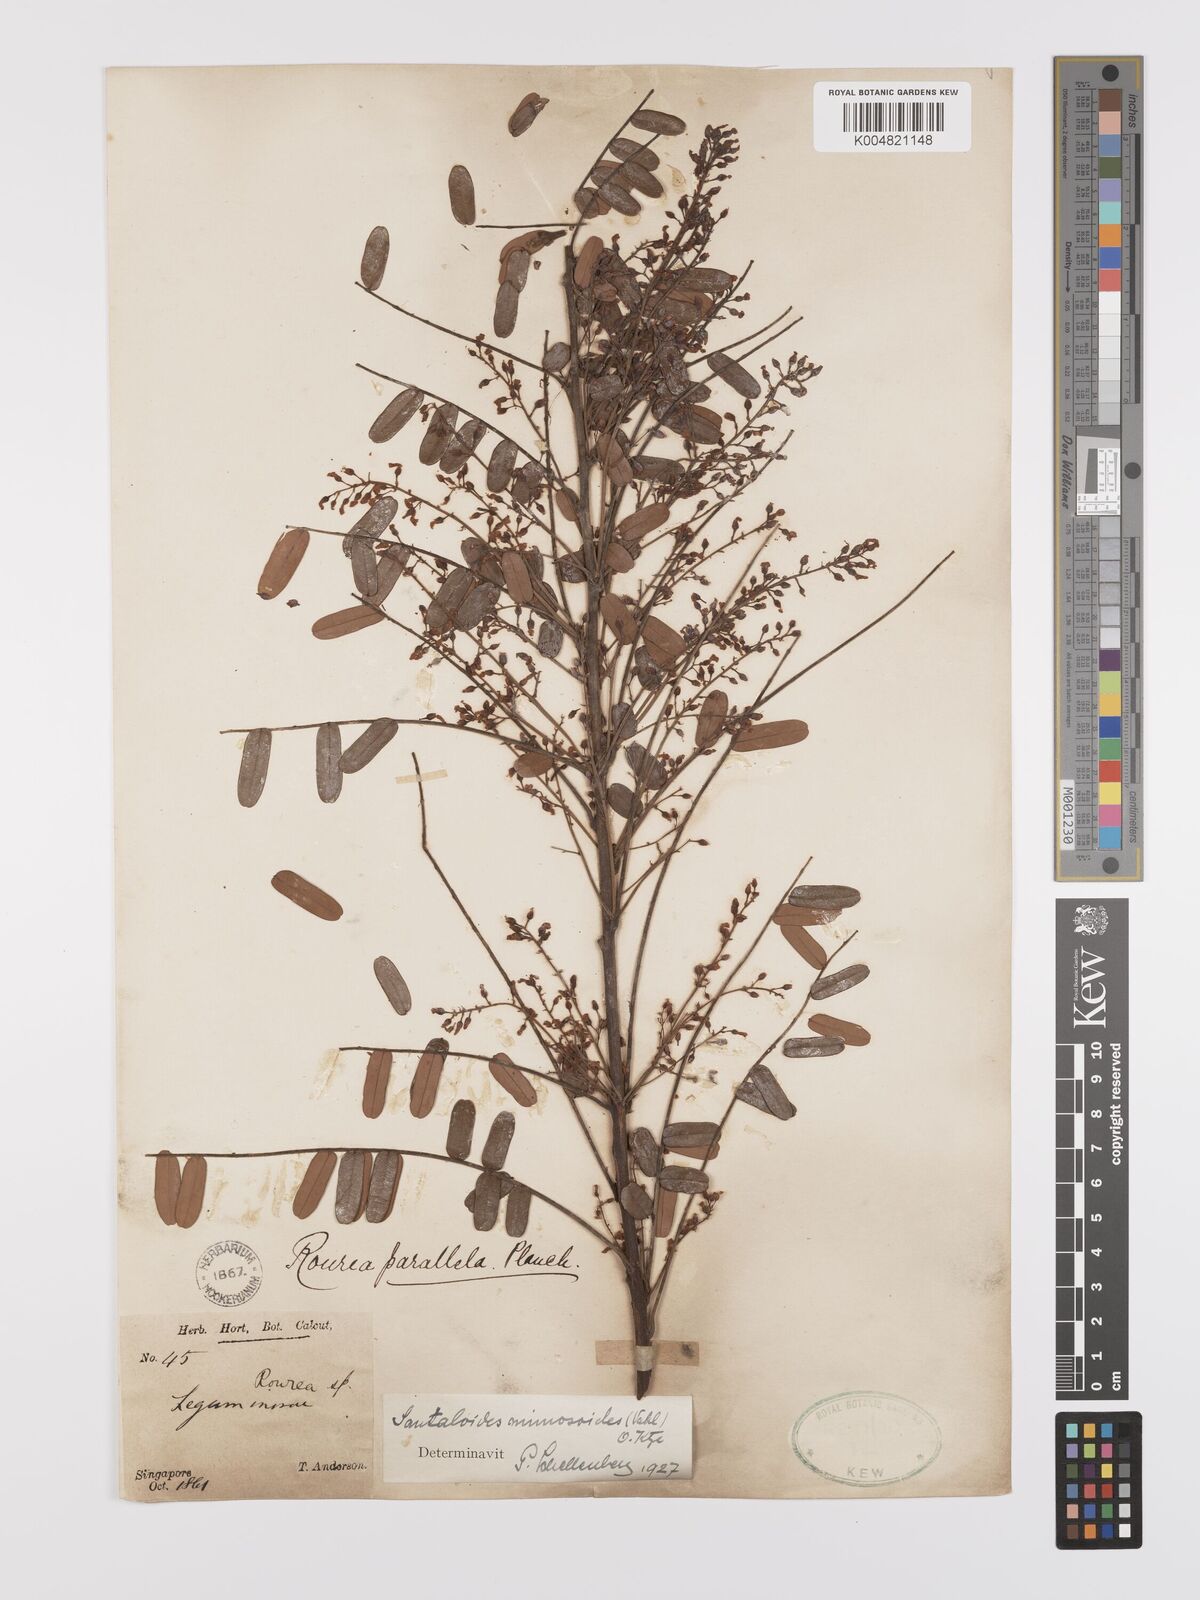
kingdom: Plantae
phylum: Tracheophyta
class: Magnoliopsida
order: Oxalidales
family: Connaraceae
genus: Rourea
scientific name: Rourea mimosoides
